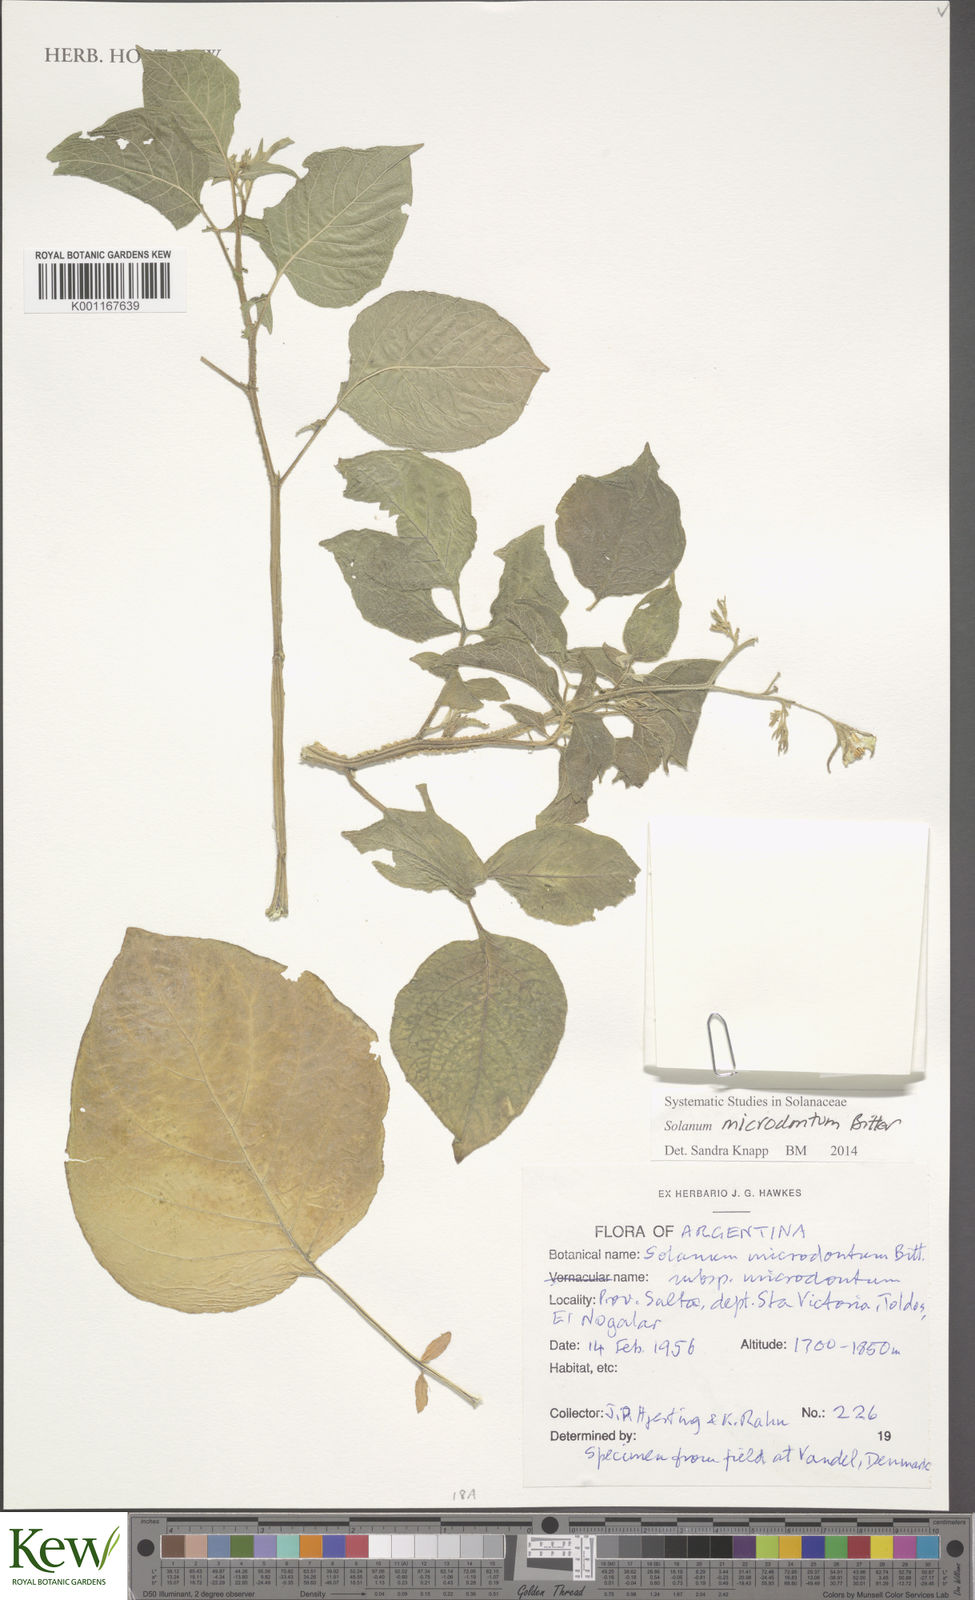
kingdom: Plantae
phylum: Tracheophyta
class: Magnoliopsida
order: Solanales
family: Solanaceae
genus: Solanum
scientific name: Solanum microdontum
